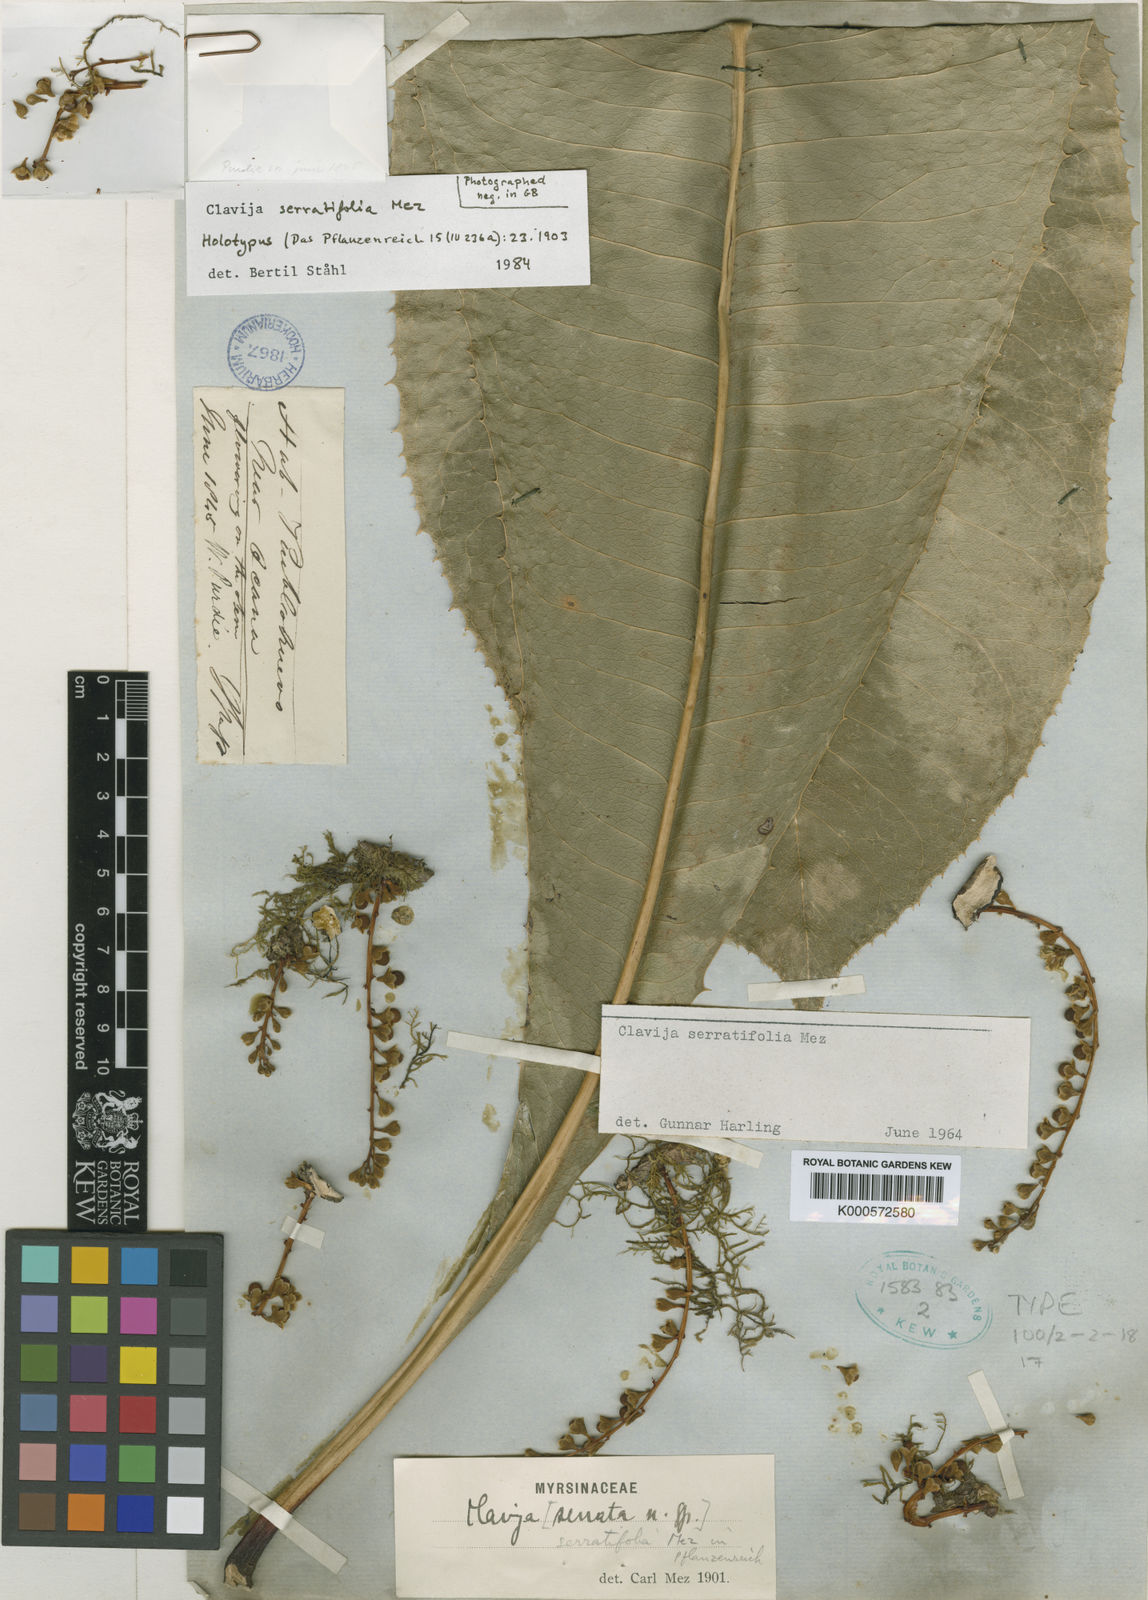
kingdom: Plantae
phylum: Tracheophyta
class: Magnoliopsida
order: Ericales
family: Primulaceae
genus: Clavija
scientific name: Clavija serratifolia
